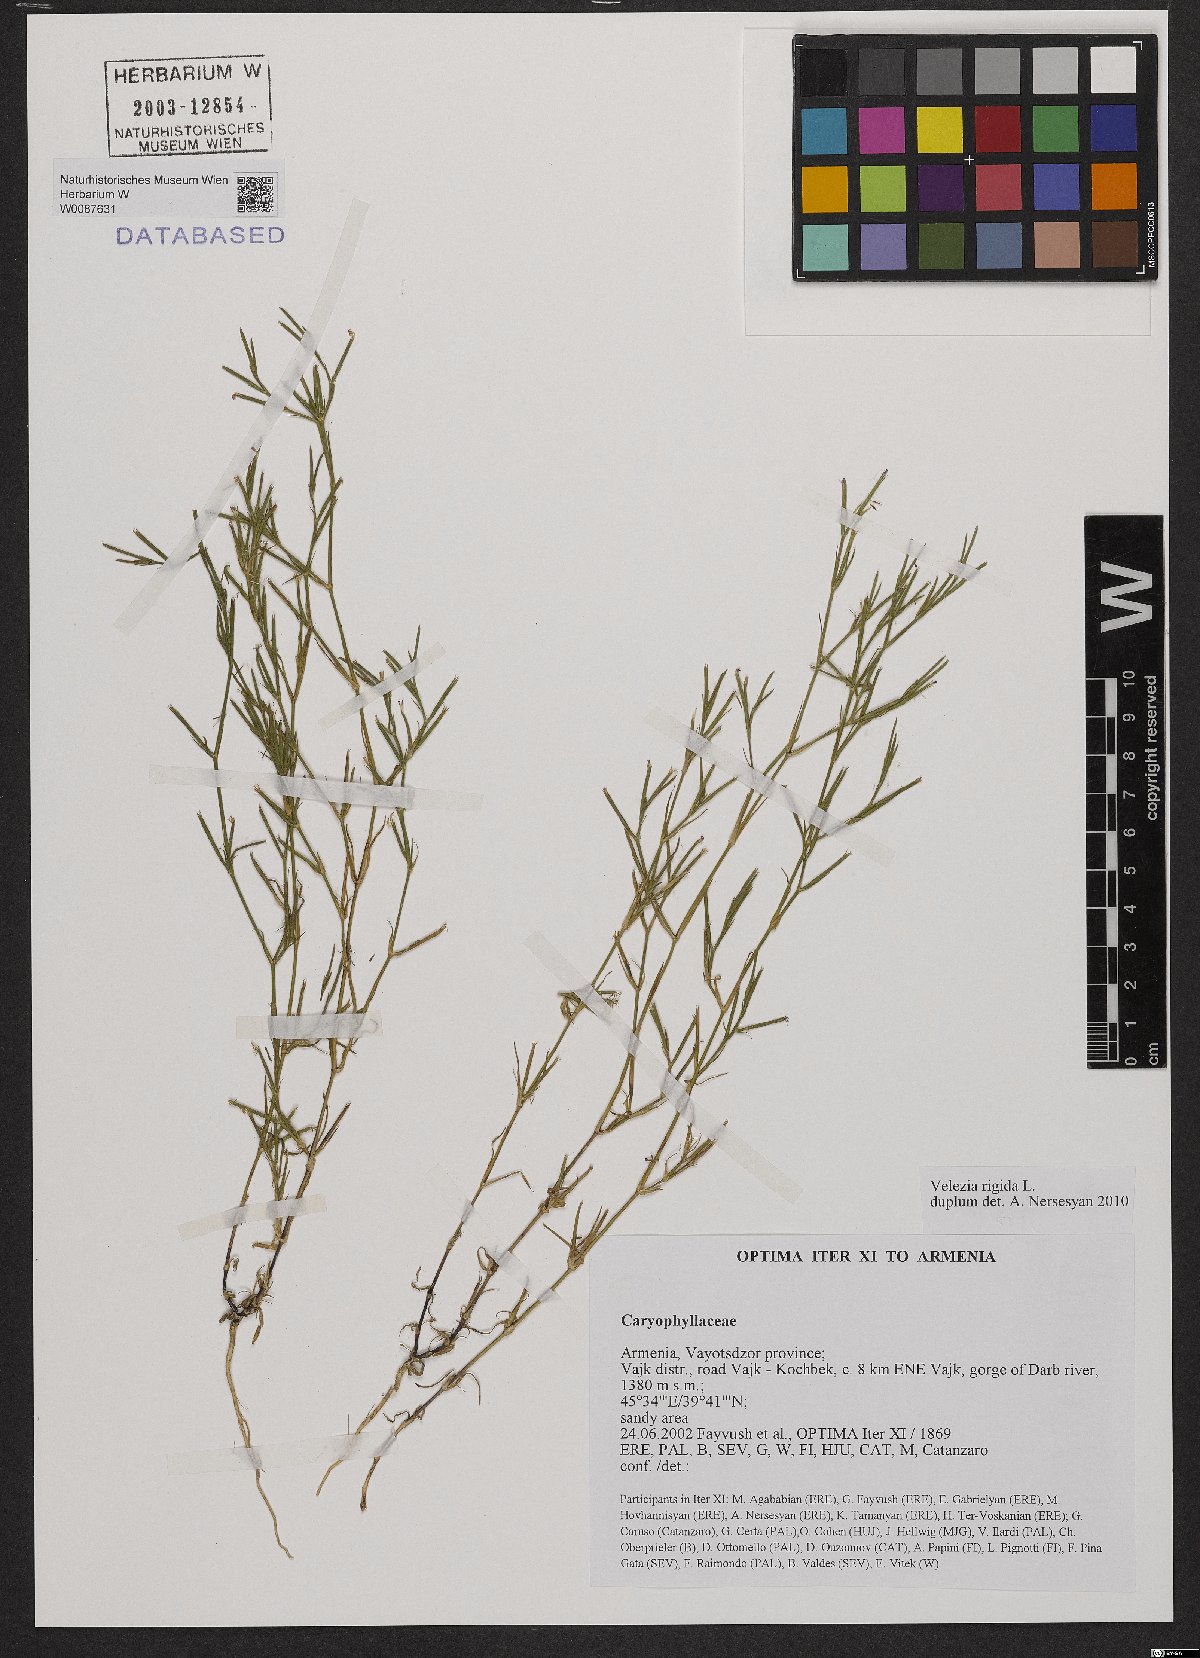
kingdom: Plantae
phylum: Tracheophyta
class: Magnoliopsida
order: Caryophyllales
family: Caryophyllaceae
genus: Dianthus
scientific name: Dianthus nudiflorus
